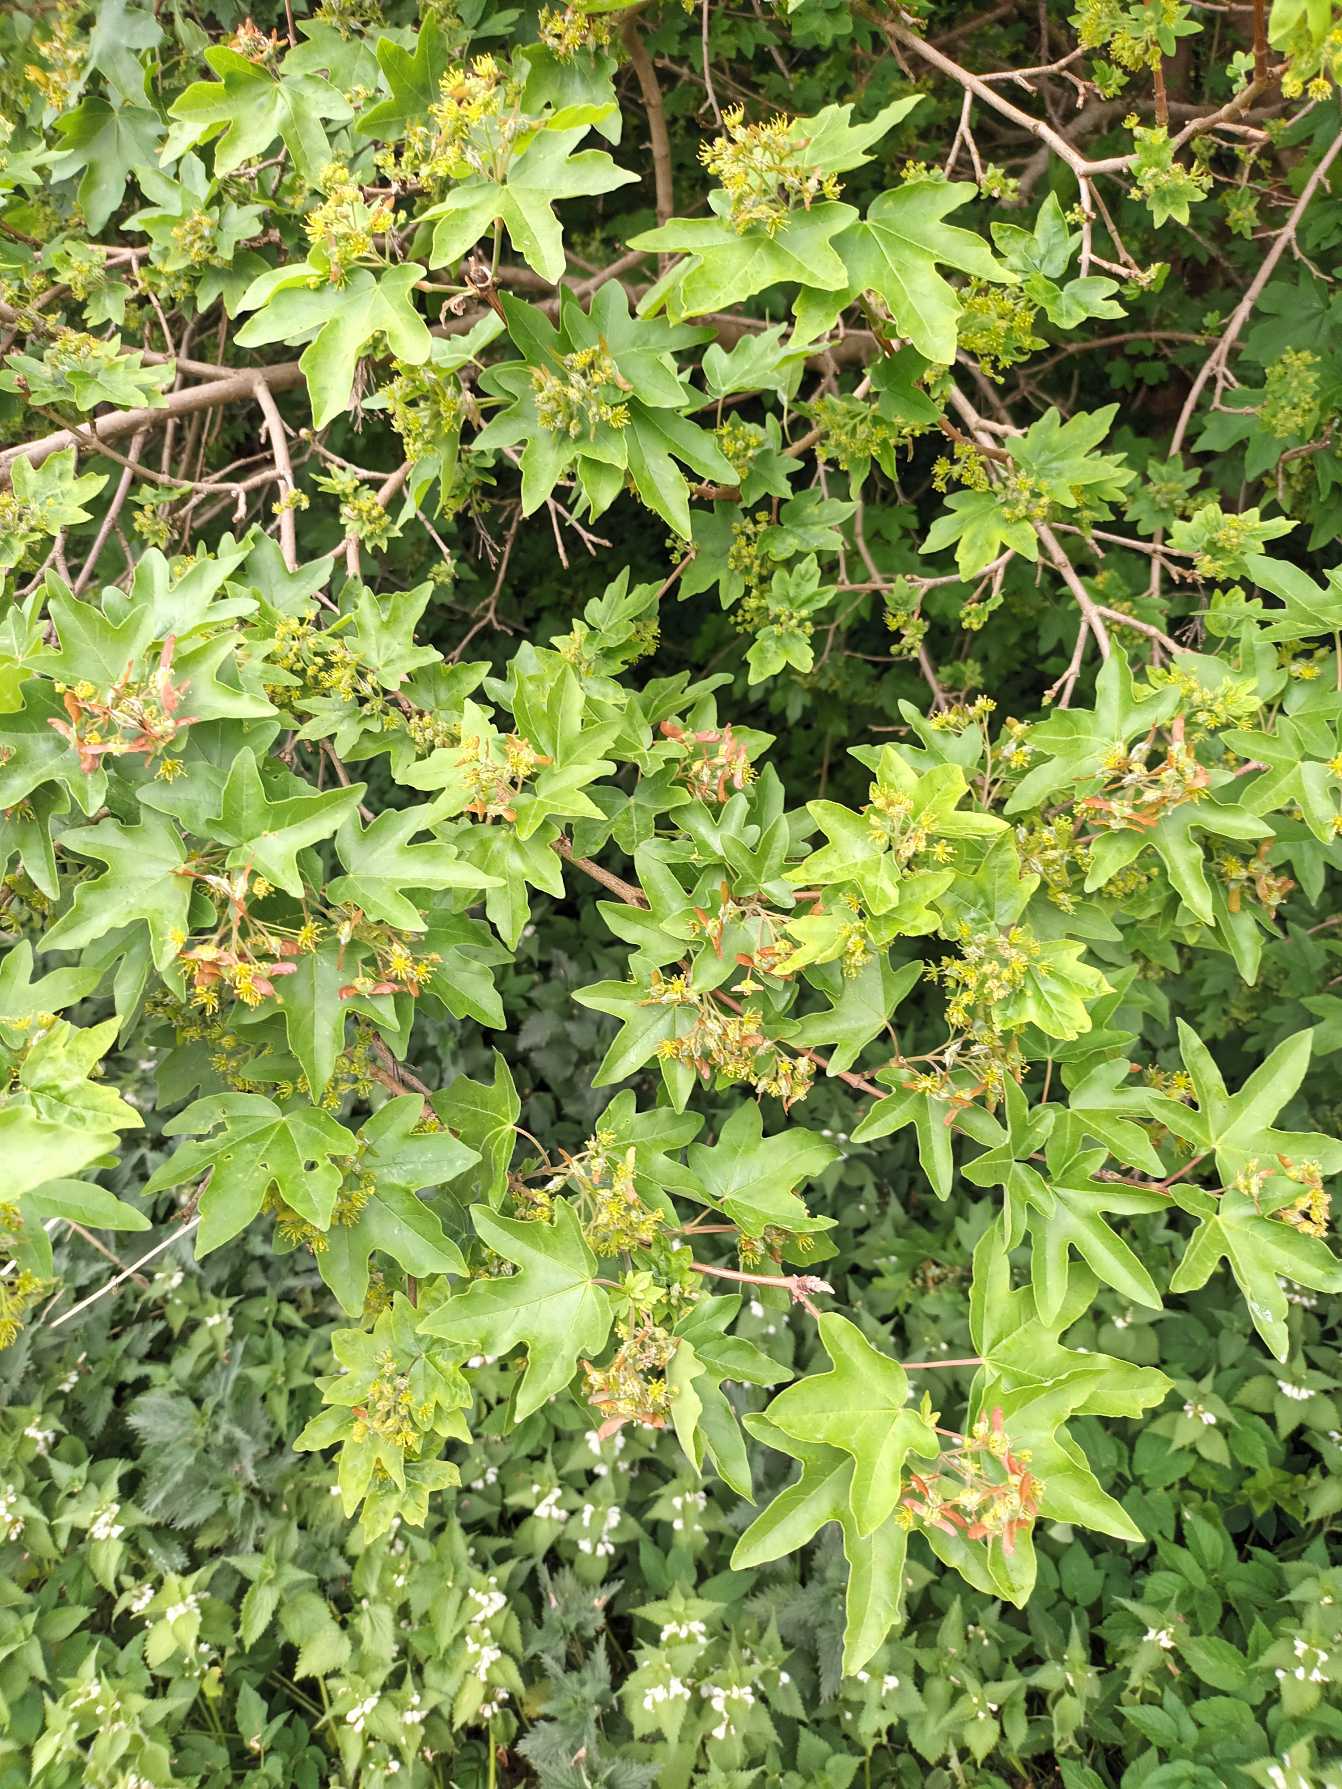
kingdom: Plantae
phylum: Tracheophyta
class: Magnoliopsida
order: Sapindales
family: Sapindaceae
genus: Acer
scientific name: Acer campestre
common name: Navr
